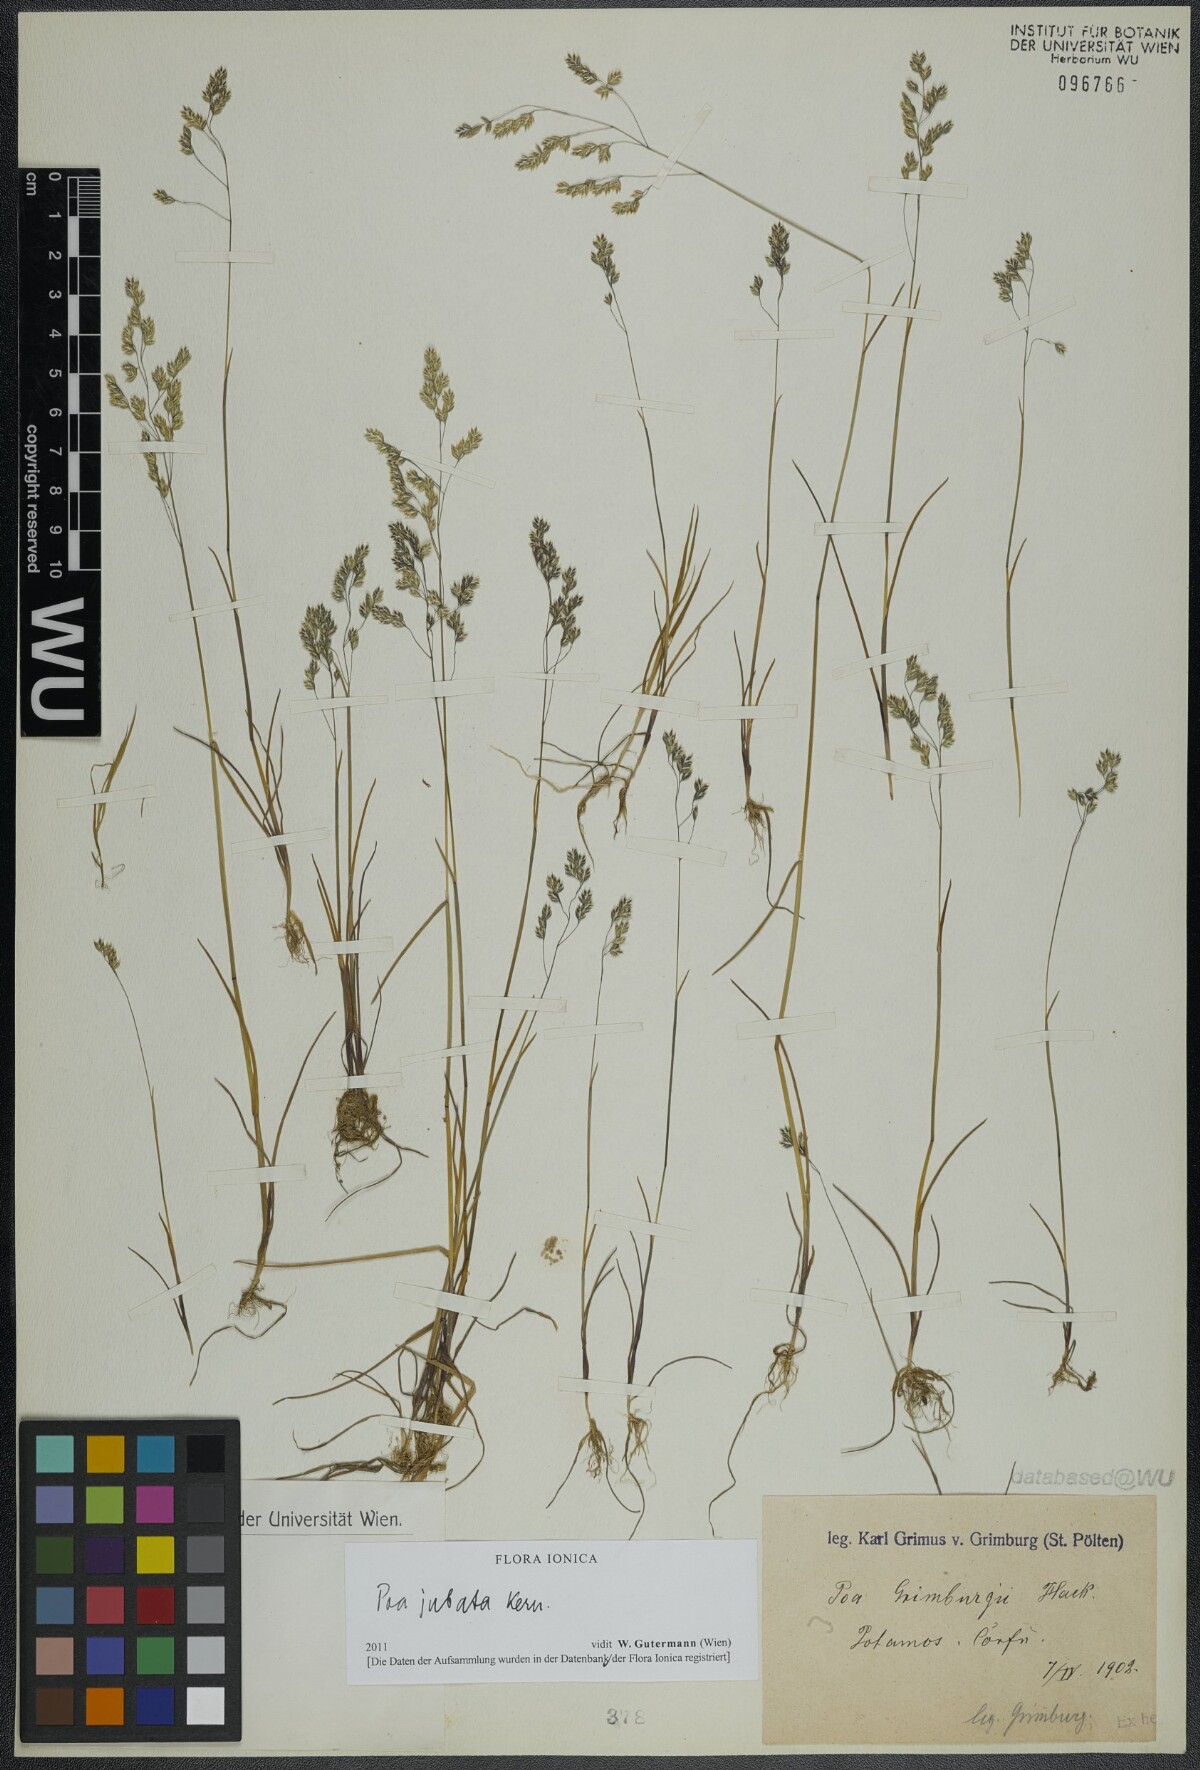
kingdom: Plantae
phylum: Tracheophyta
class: Liliopsida
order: Poales
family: Poaceae
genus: Poa
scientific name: Poa jubata
